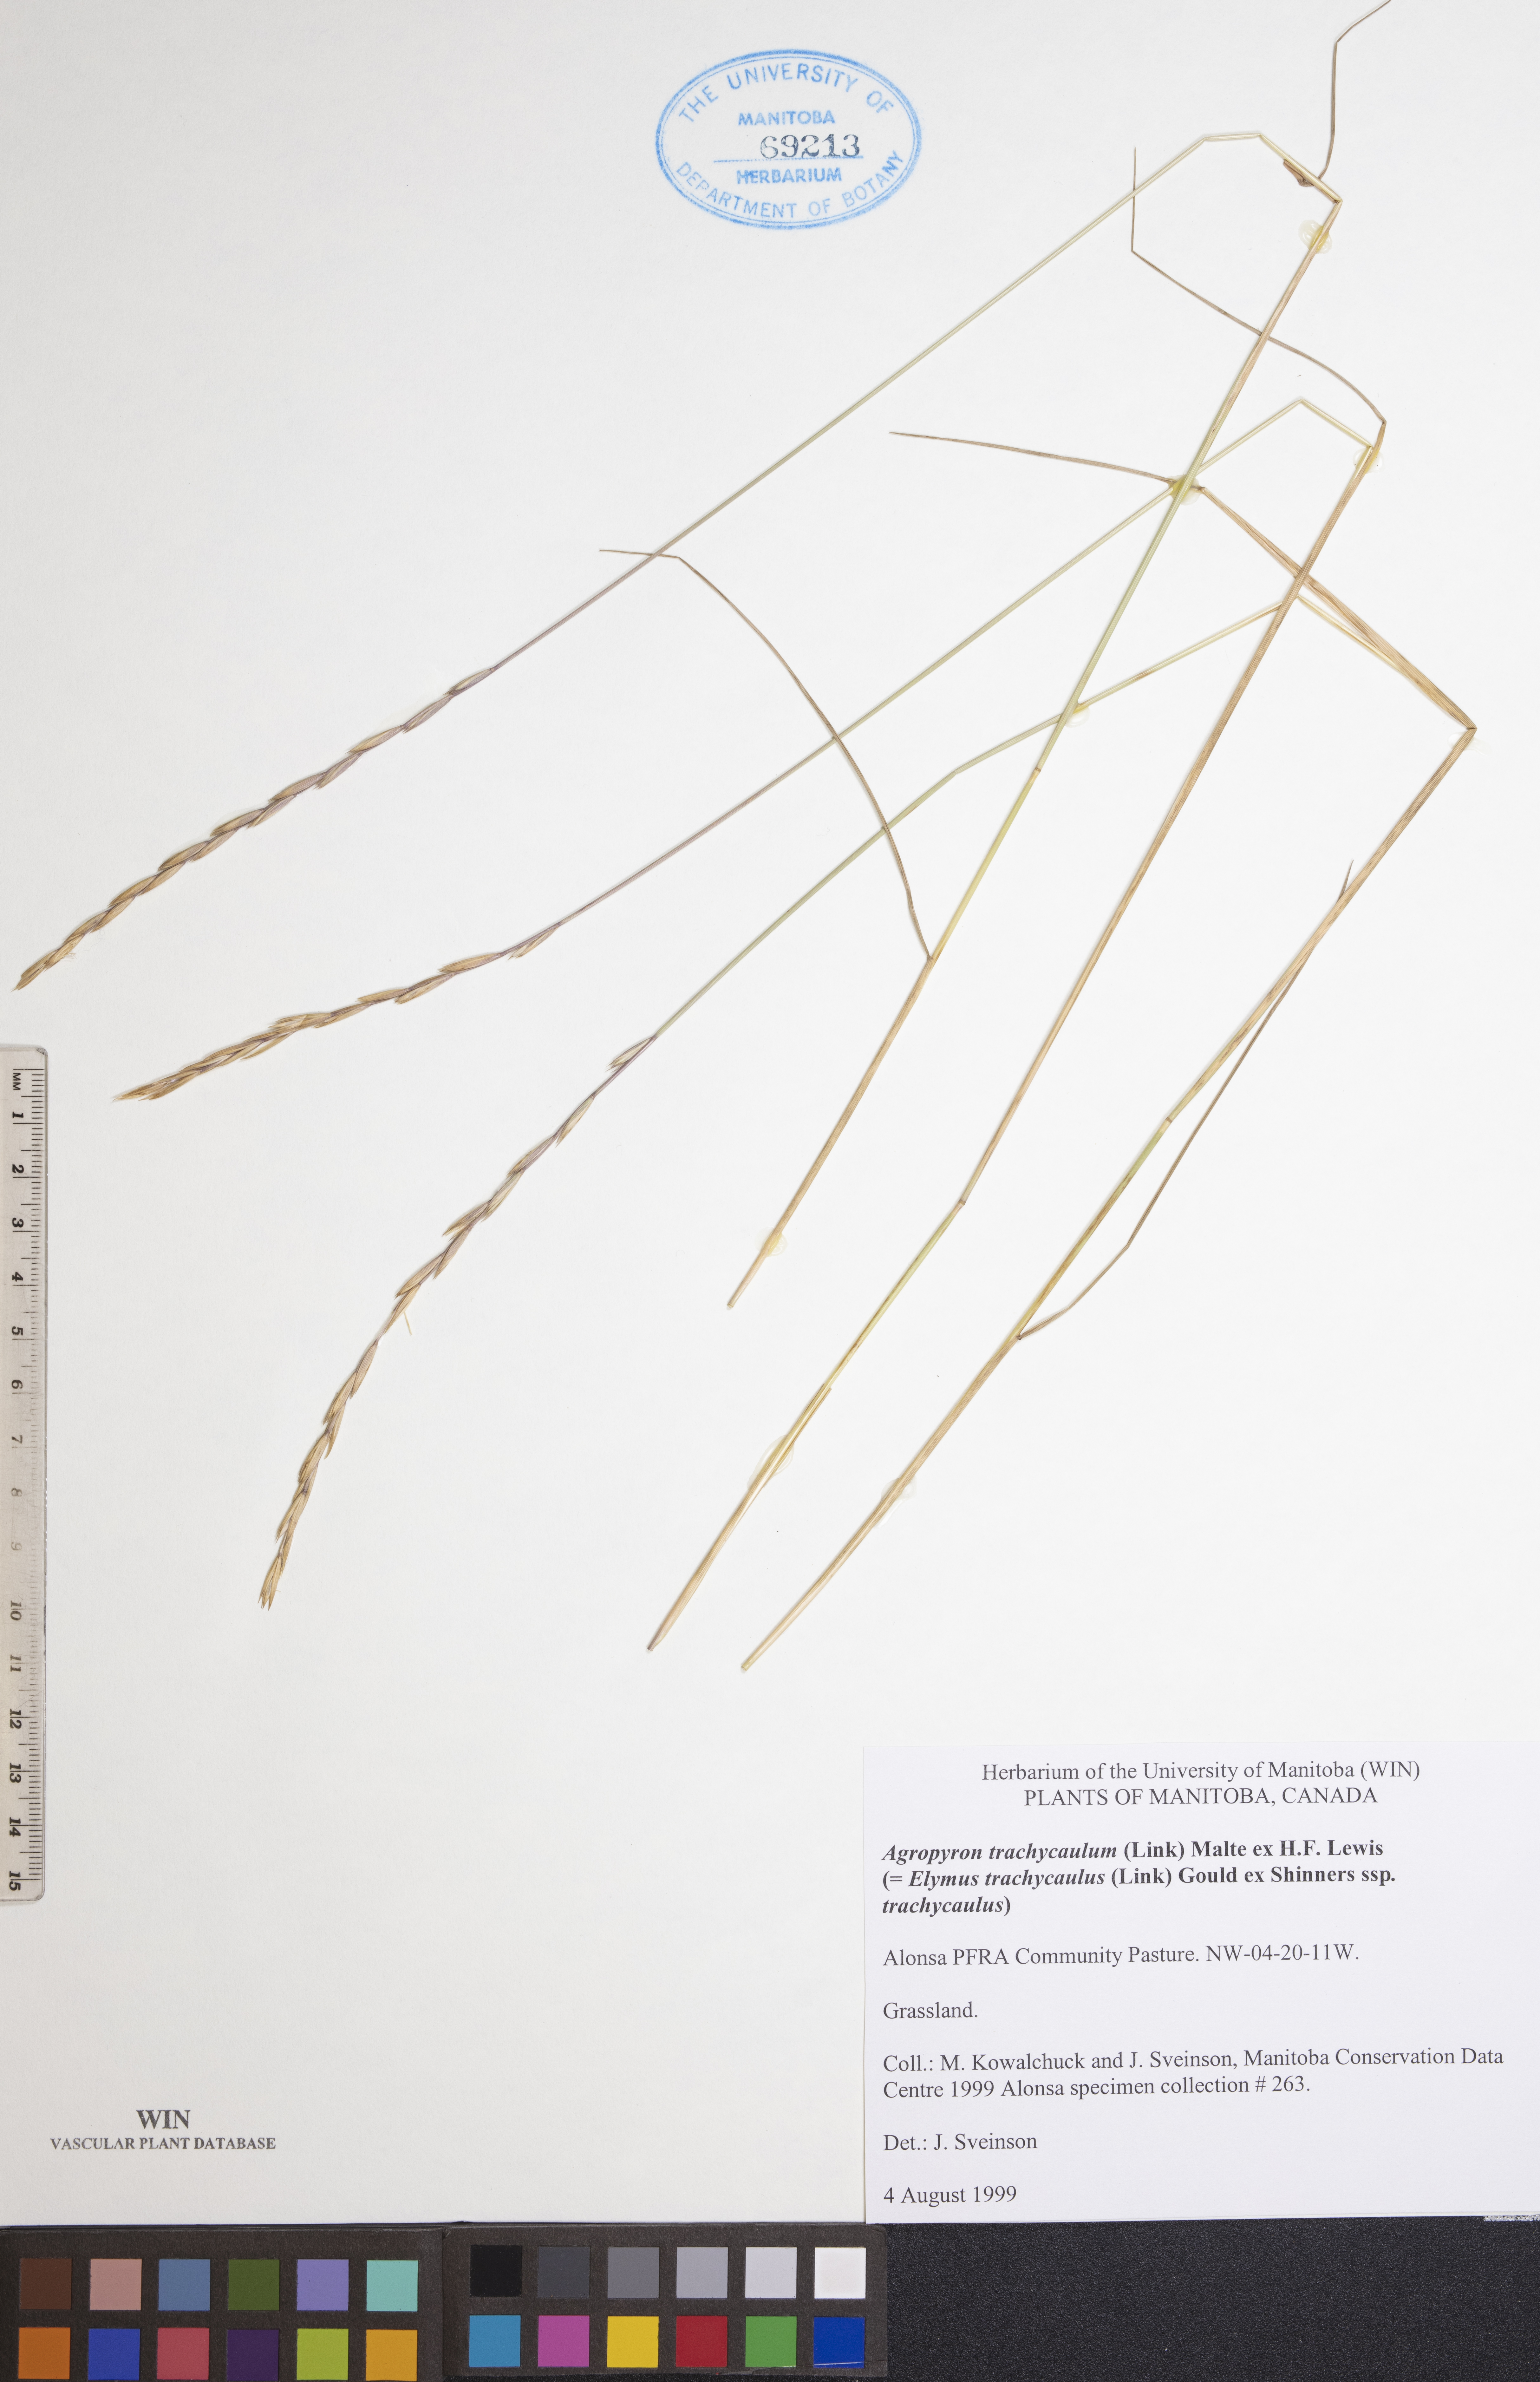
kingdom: Plantae
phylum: Tracheophyta
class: Liliopsida
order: Poales
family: Poaceae
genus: Elymus
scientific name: Elymus violaceus
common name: Arctic wheatgrass
